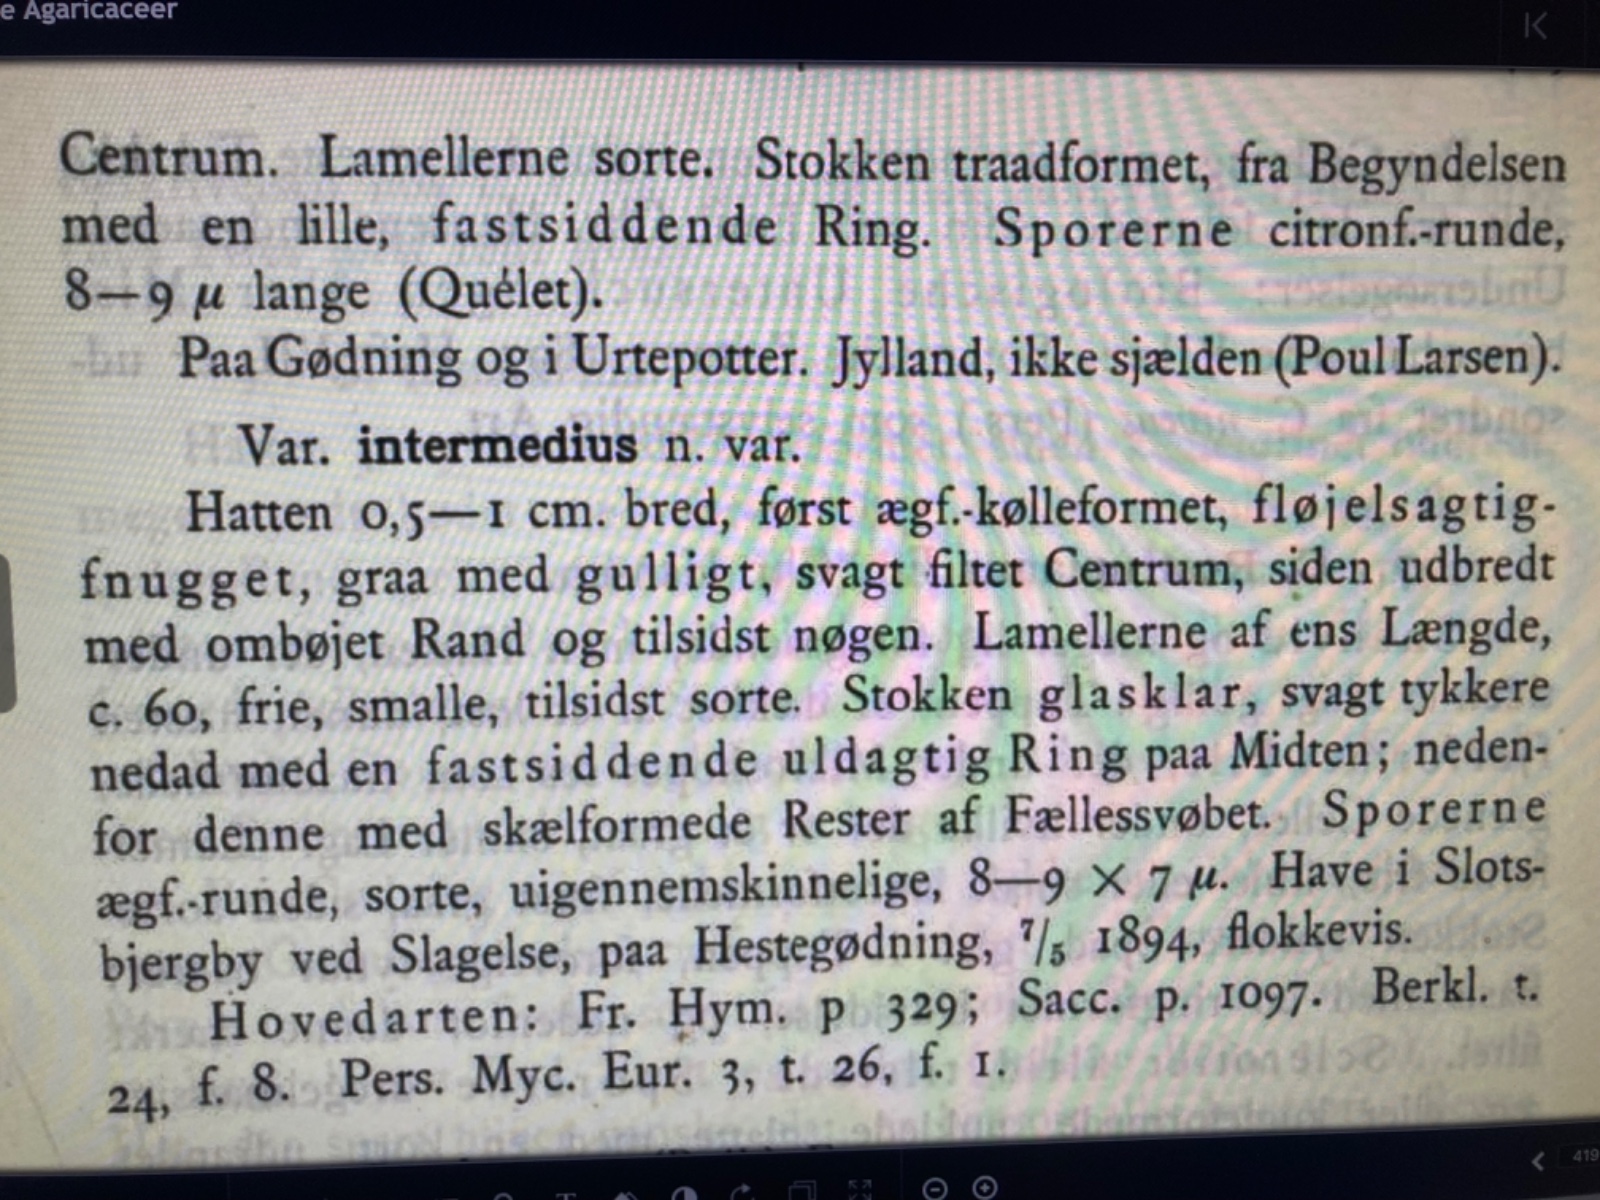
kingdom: Fungi
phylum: Basidiomycota
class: Agaricomycetes
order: Agaricales
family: Psathyrellaceae
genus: Narcissea
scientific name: Narcissea ephemeroides
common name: ring-blækhat
